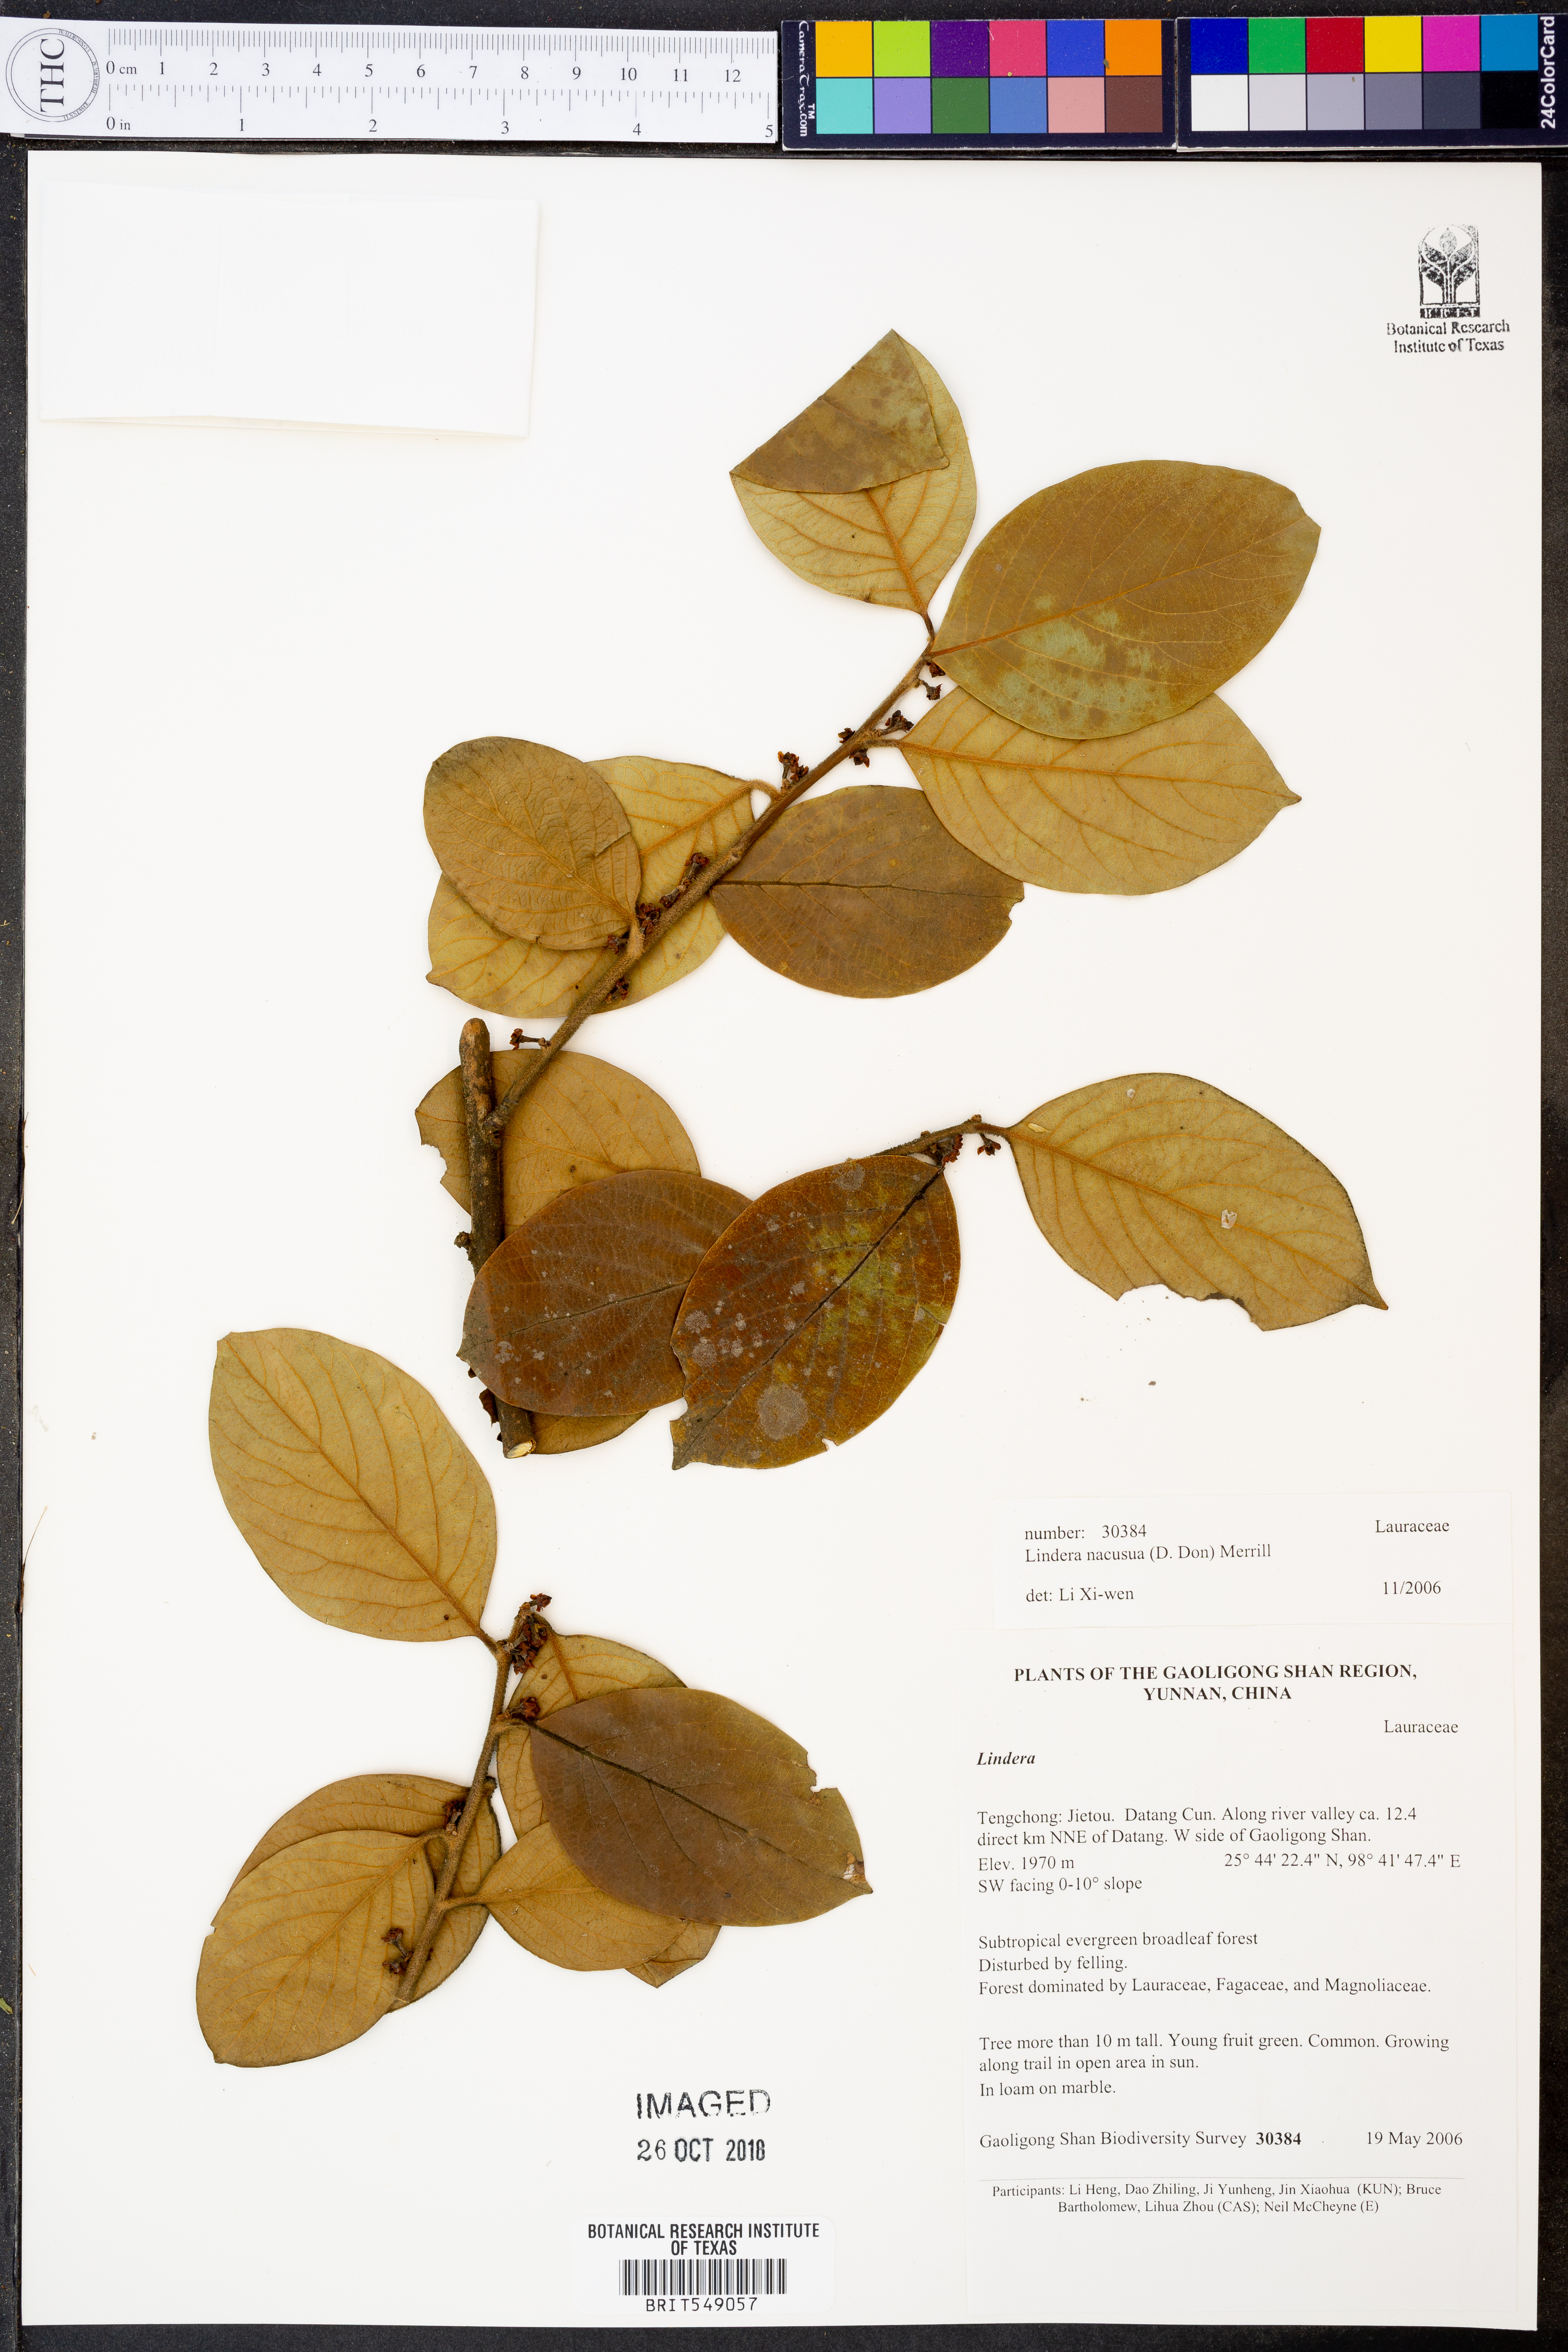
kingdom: Plantae
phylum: Tracheophyta
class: Magnoliopsida
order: Laurales
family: Lauraceae
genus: Lindera
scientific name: Lindera nacusua
